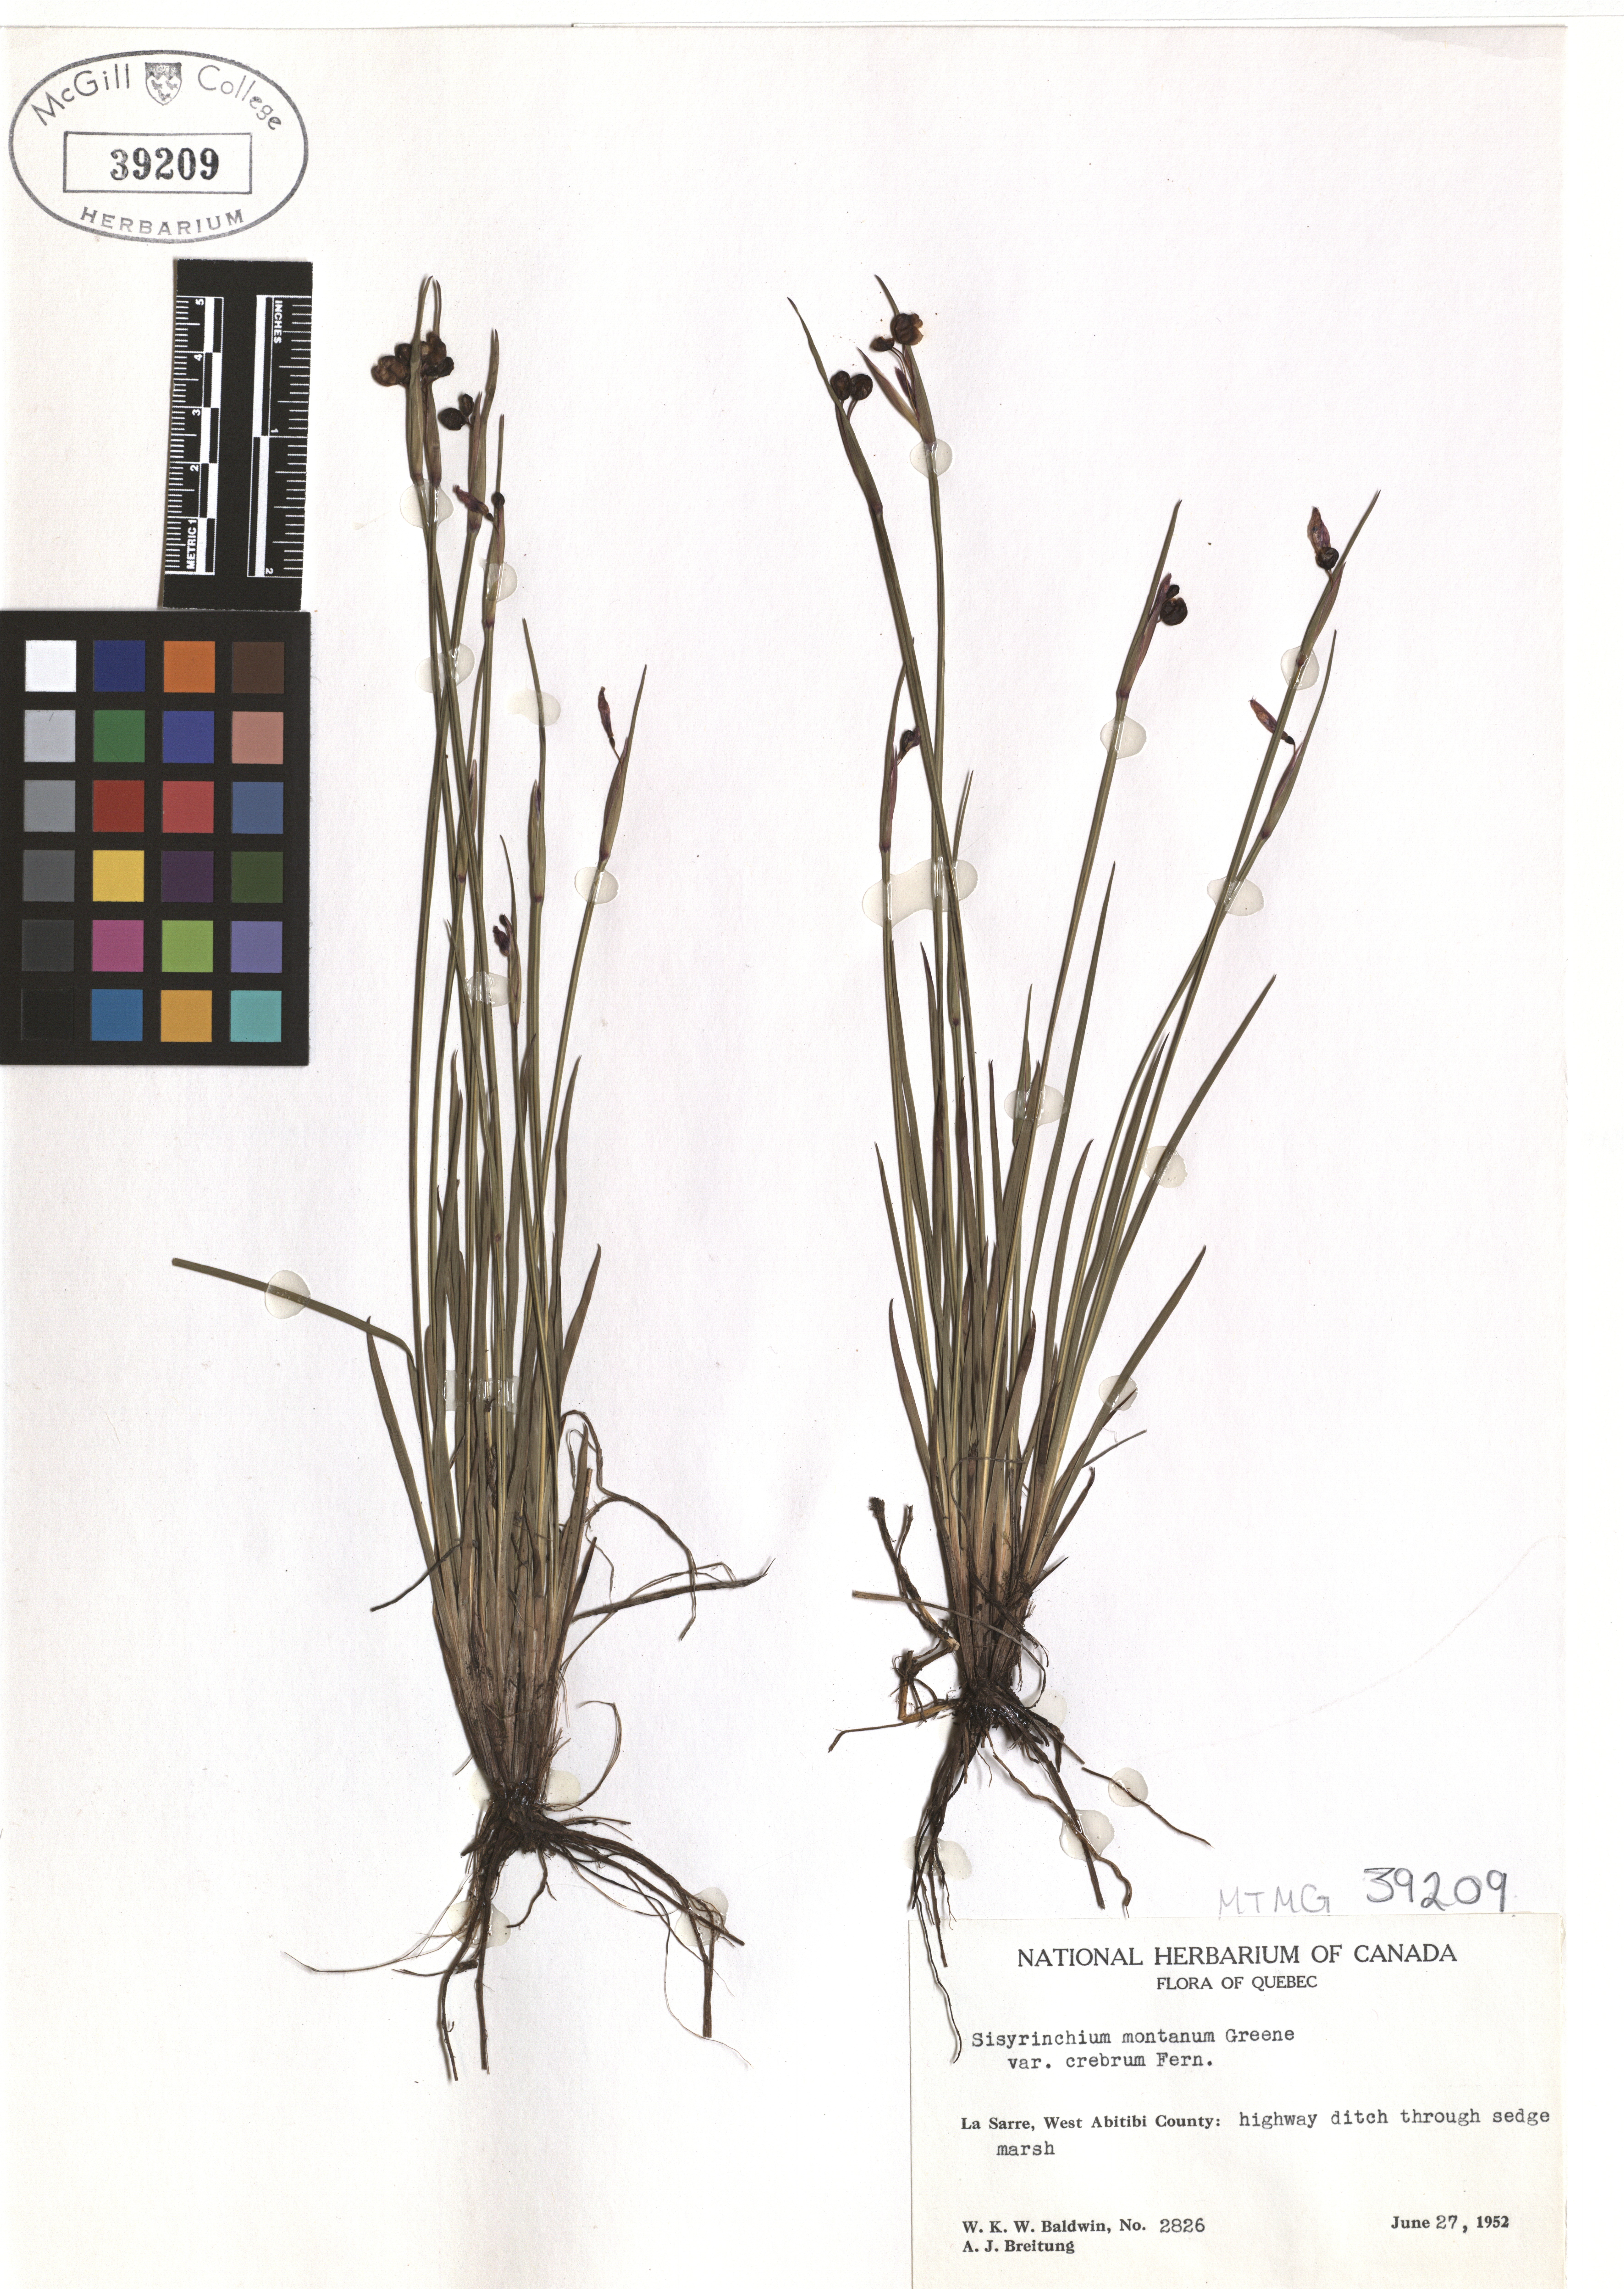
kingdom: Plantae
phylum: Tracheophyta
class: Liliopsida
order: Asparagales
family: Iridaceae
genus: Sisyrinchium
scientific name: Sisyrinchium montanum
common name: American blue-eyed-grass
